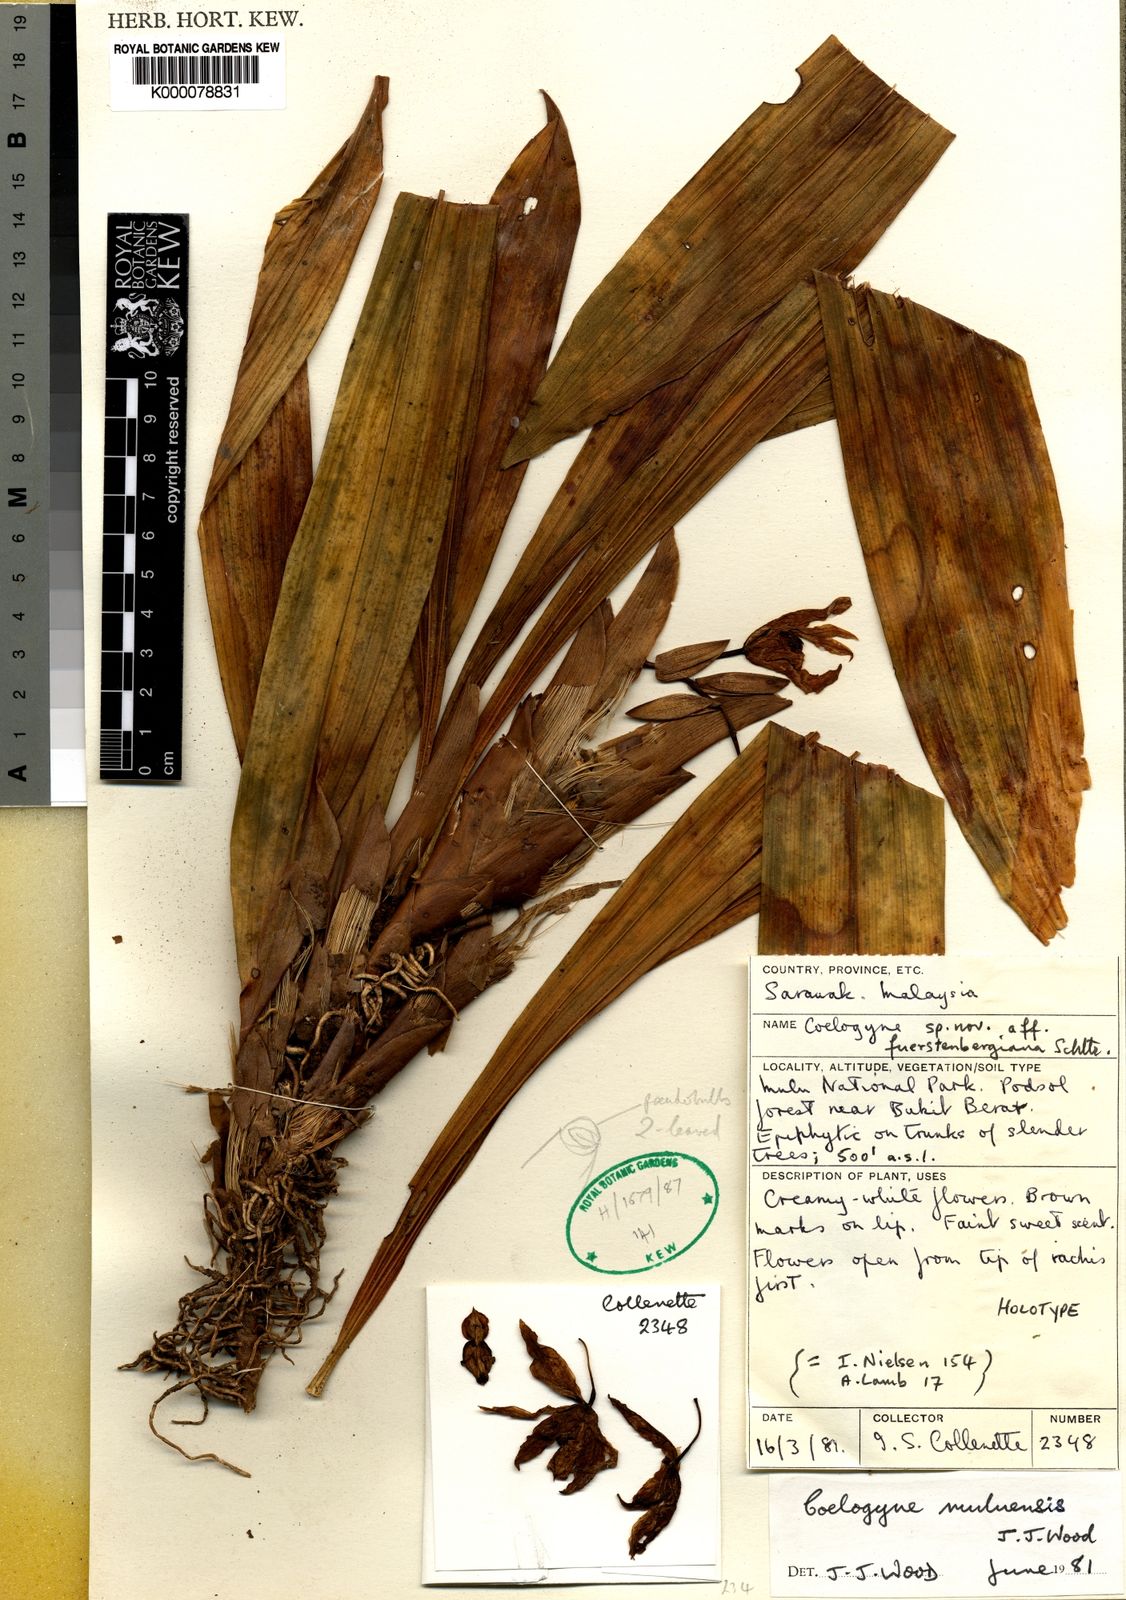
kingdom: Plantae
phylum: Tracheophyta
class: Liliopsida
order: Asparagales
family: Orchidaceae
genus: Coelogyne
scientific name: Coelogyne muluensis
